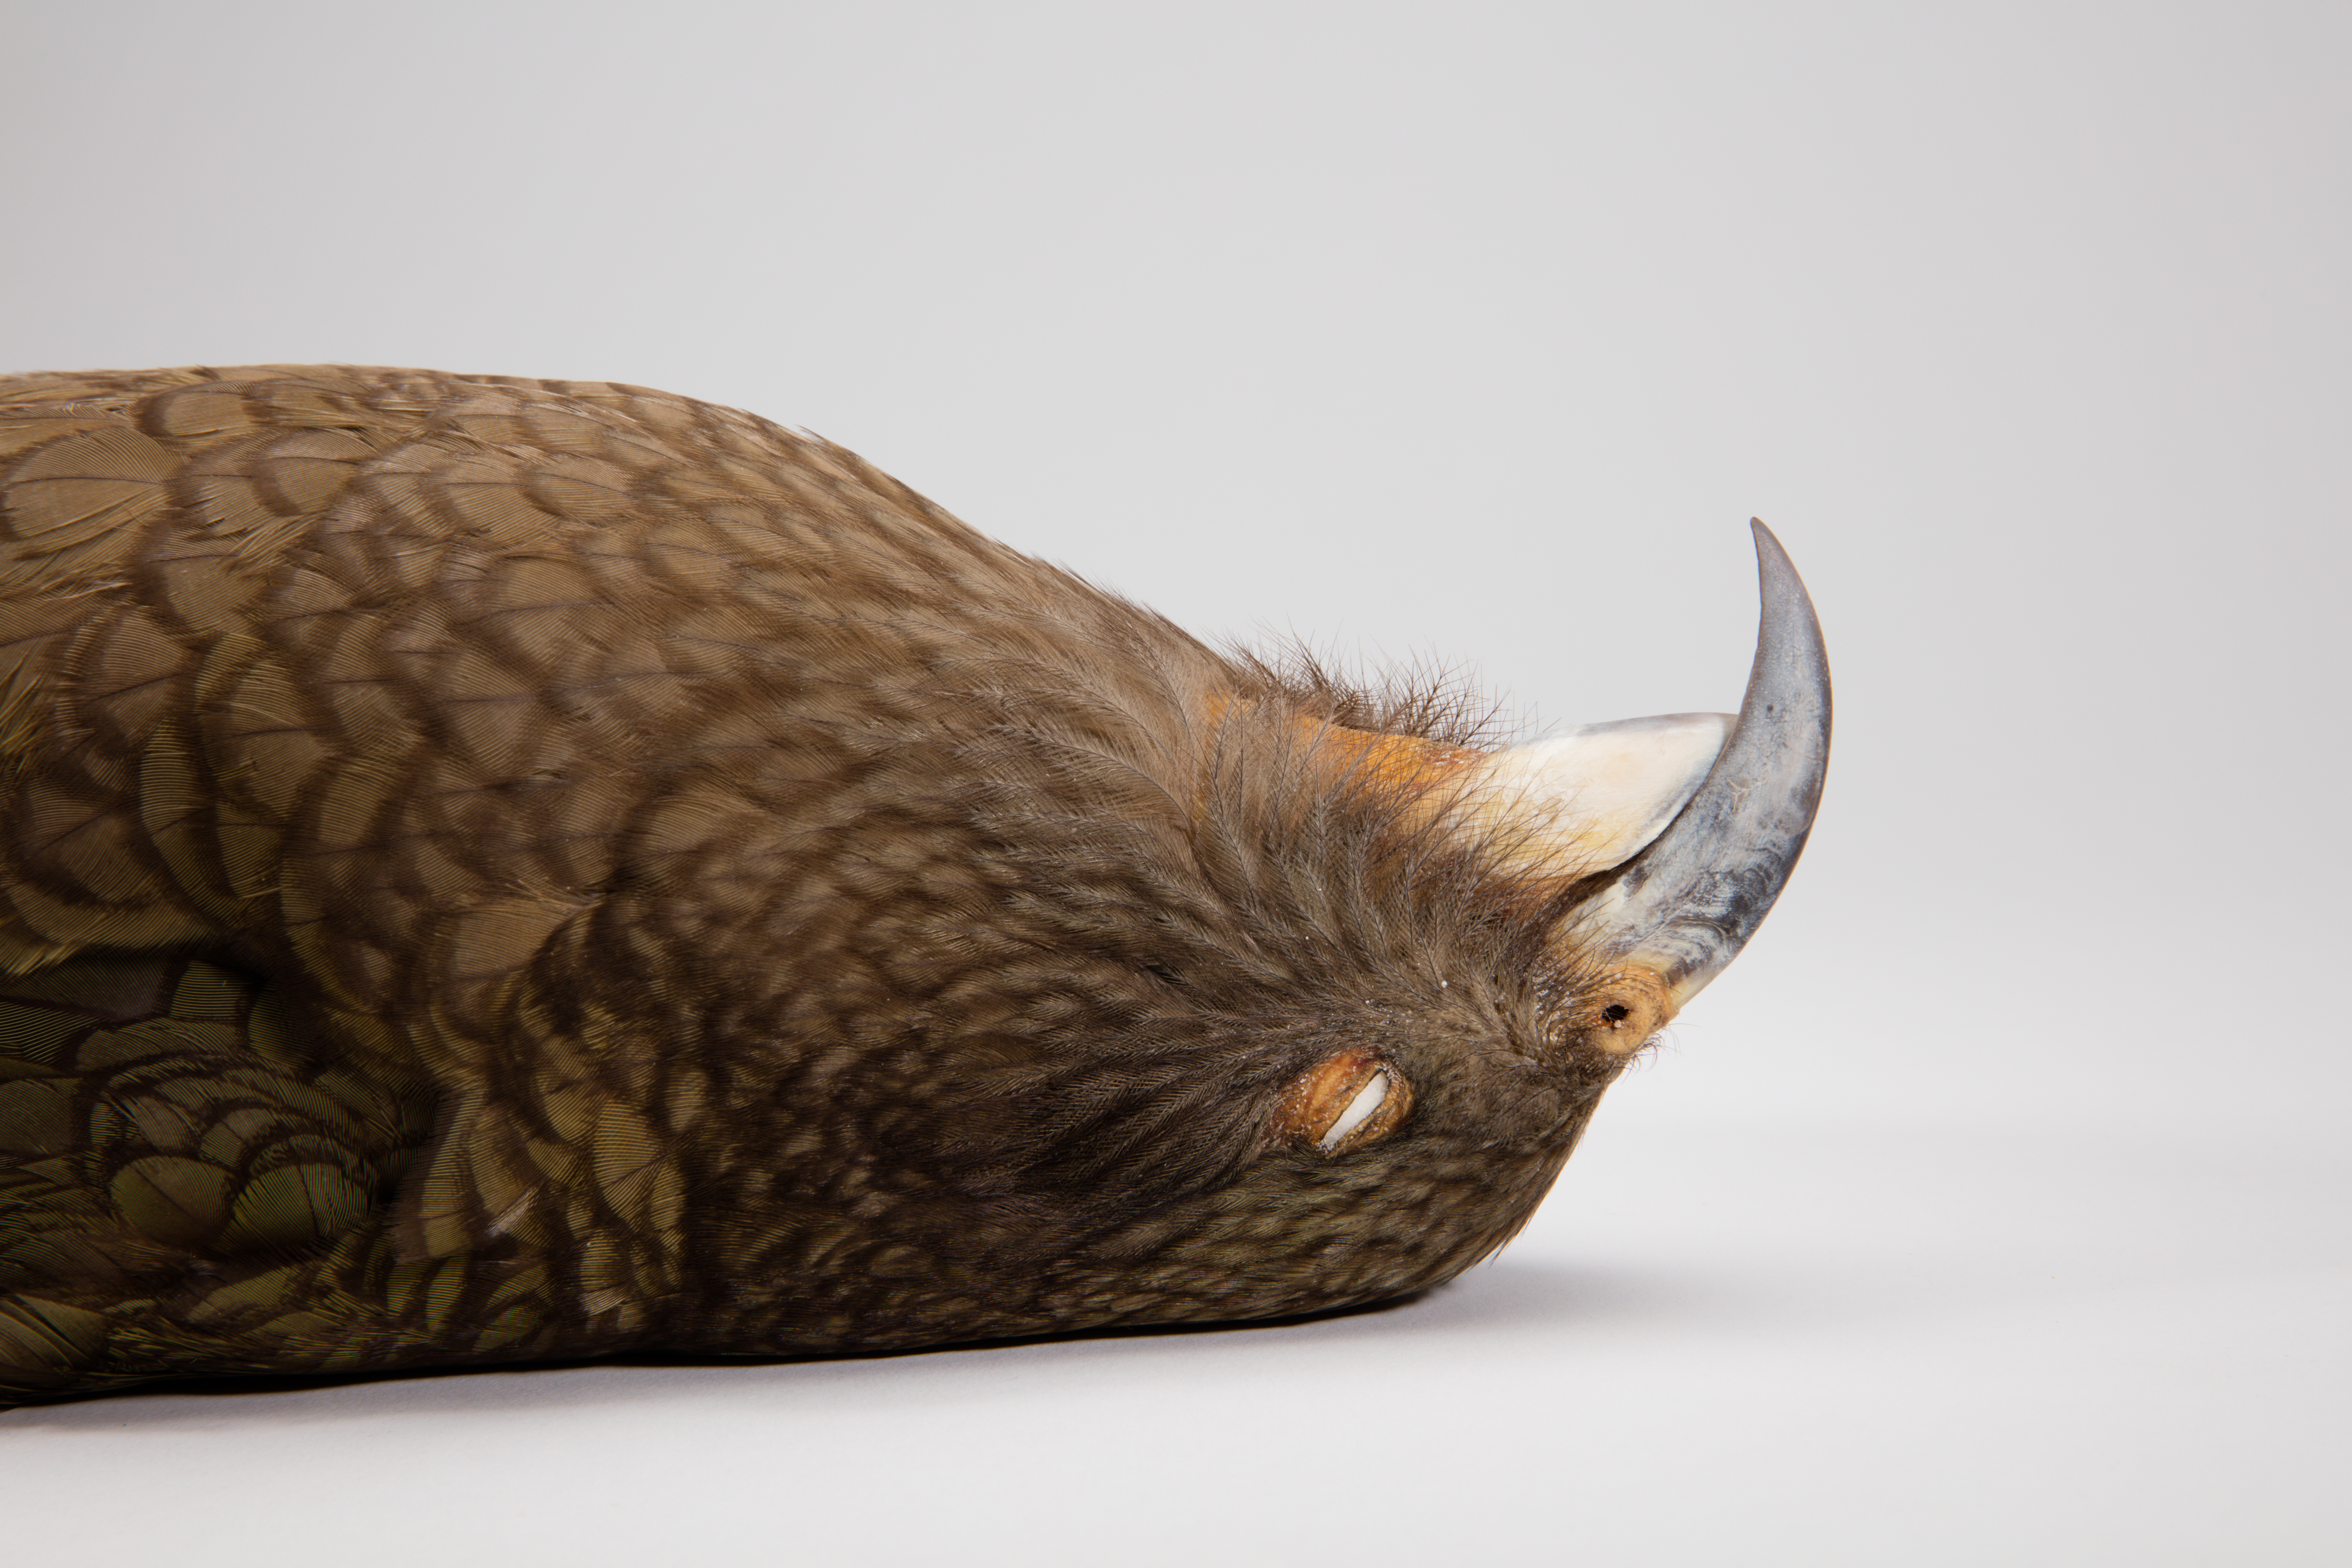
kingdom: Animalia
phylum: Chordata
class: Aves
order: Psittaciformes
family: Psittacidae
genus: Nestor
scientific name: Nestor notabilis
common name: Kea
